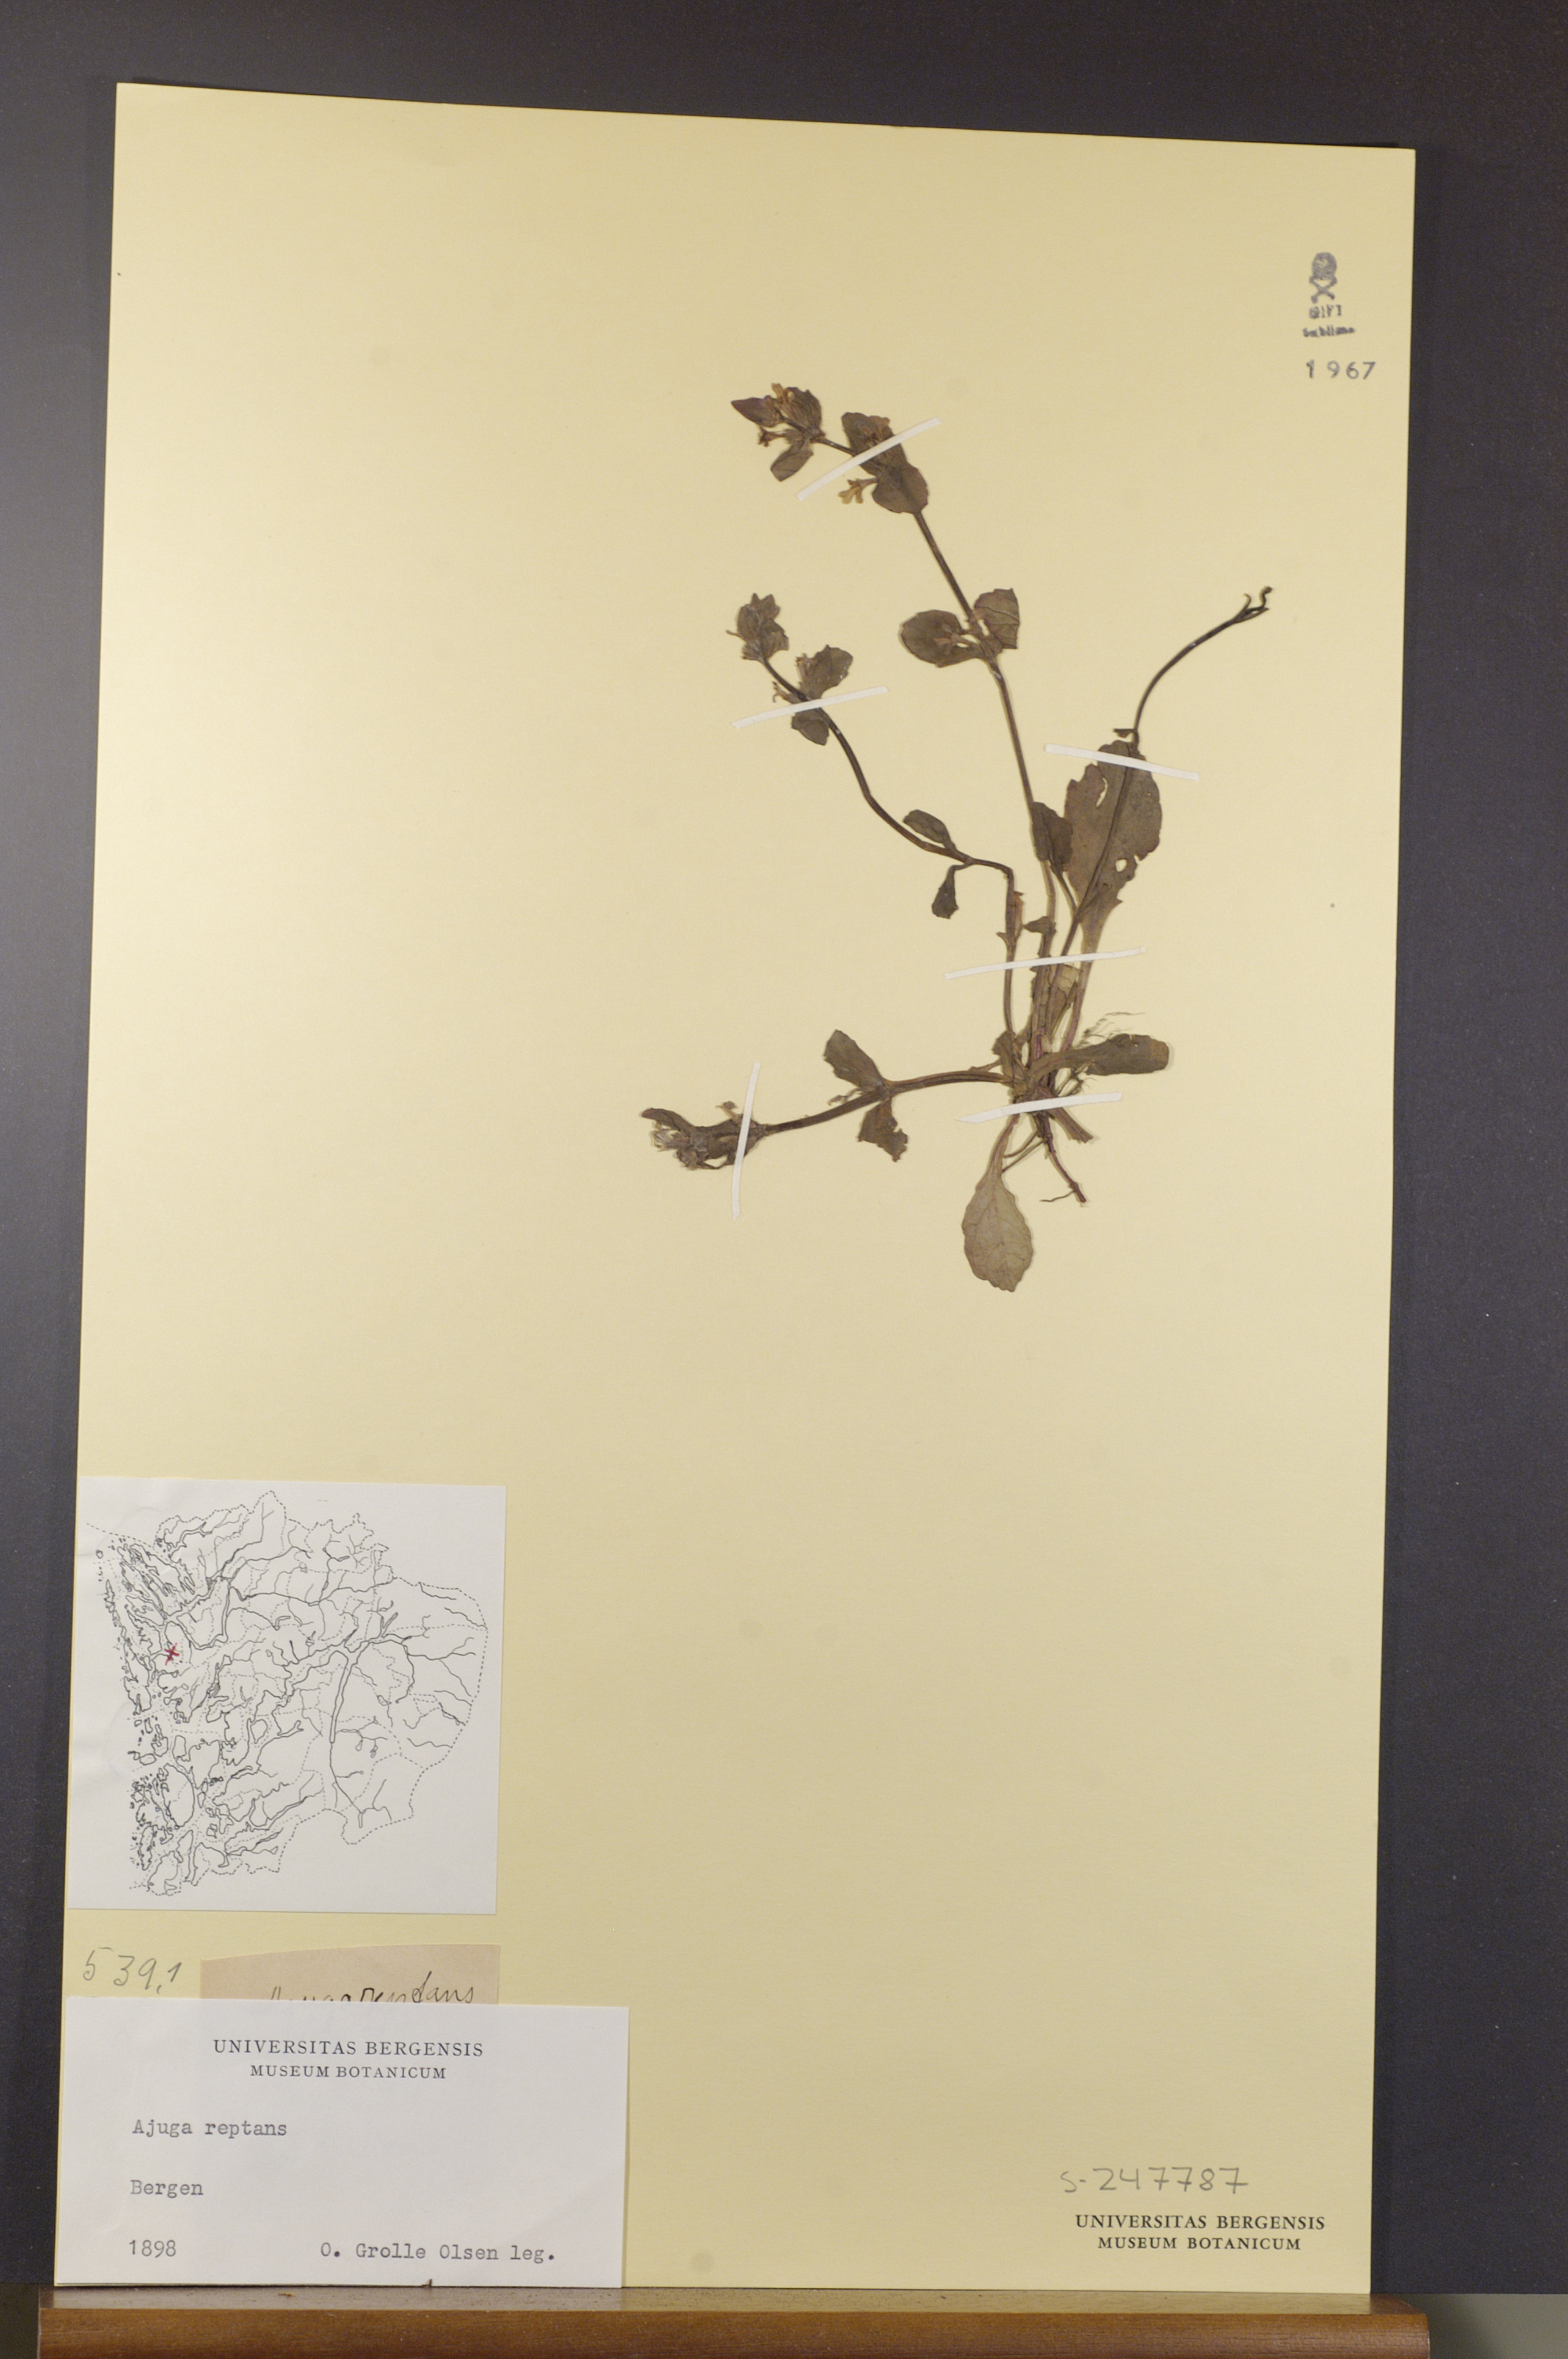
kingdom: Plantae
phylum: Tracheophyta
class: Magnoliopsida
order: Lamiales
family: Lamiaceae
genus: Ajuga
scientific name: Ajuga reptans
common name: Bugle
